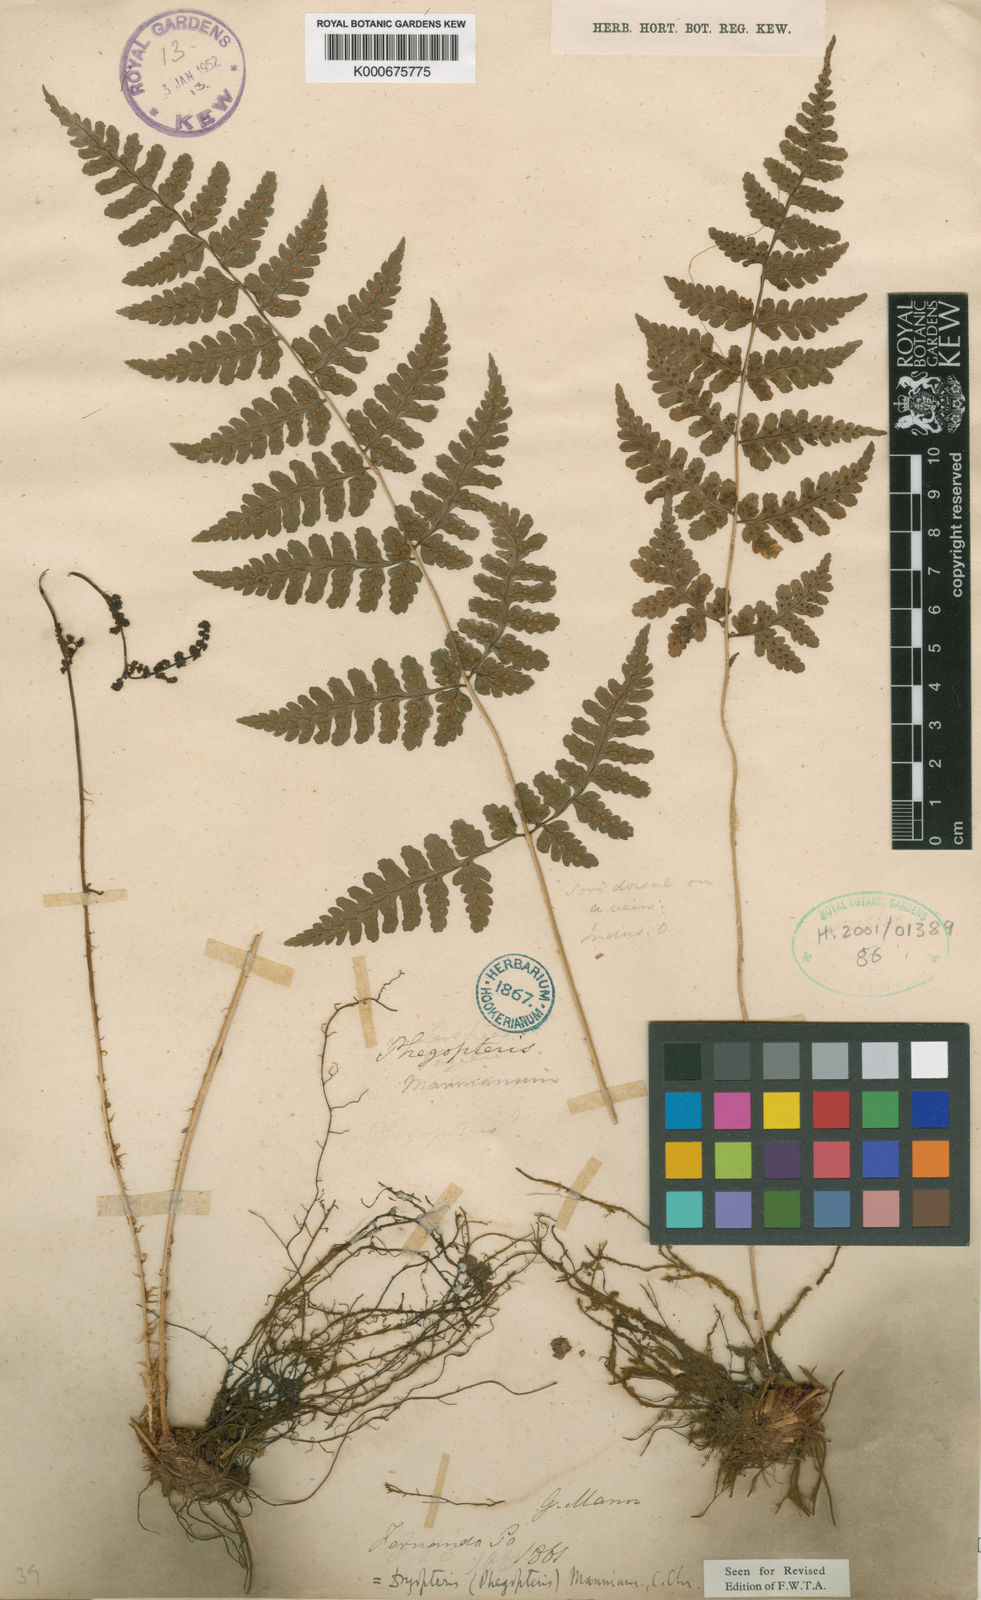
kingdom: Plantae
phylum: Tracheophyta
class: Polypodiopsida
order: Polypodiales
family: Dryopteridaceae
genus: Dryopteris
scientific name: Dryopteris manniana
